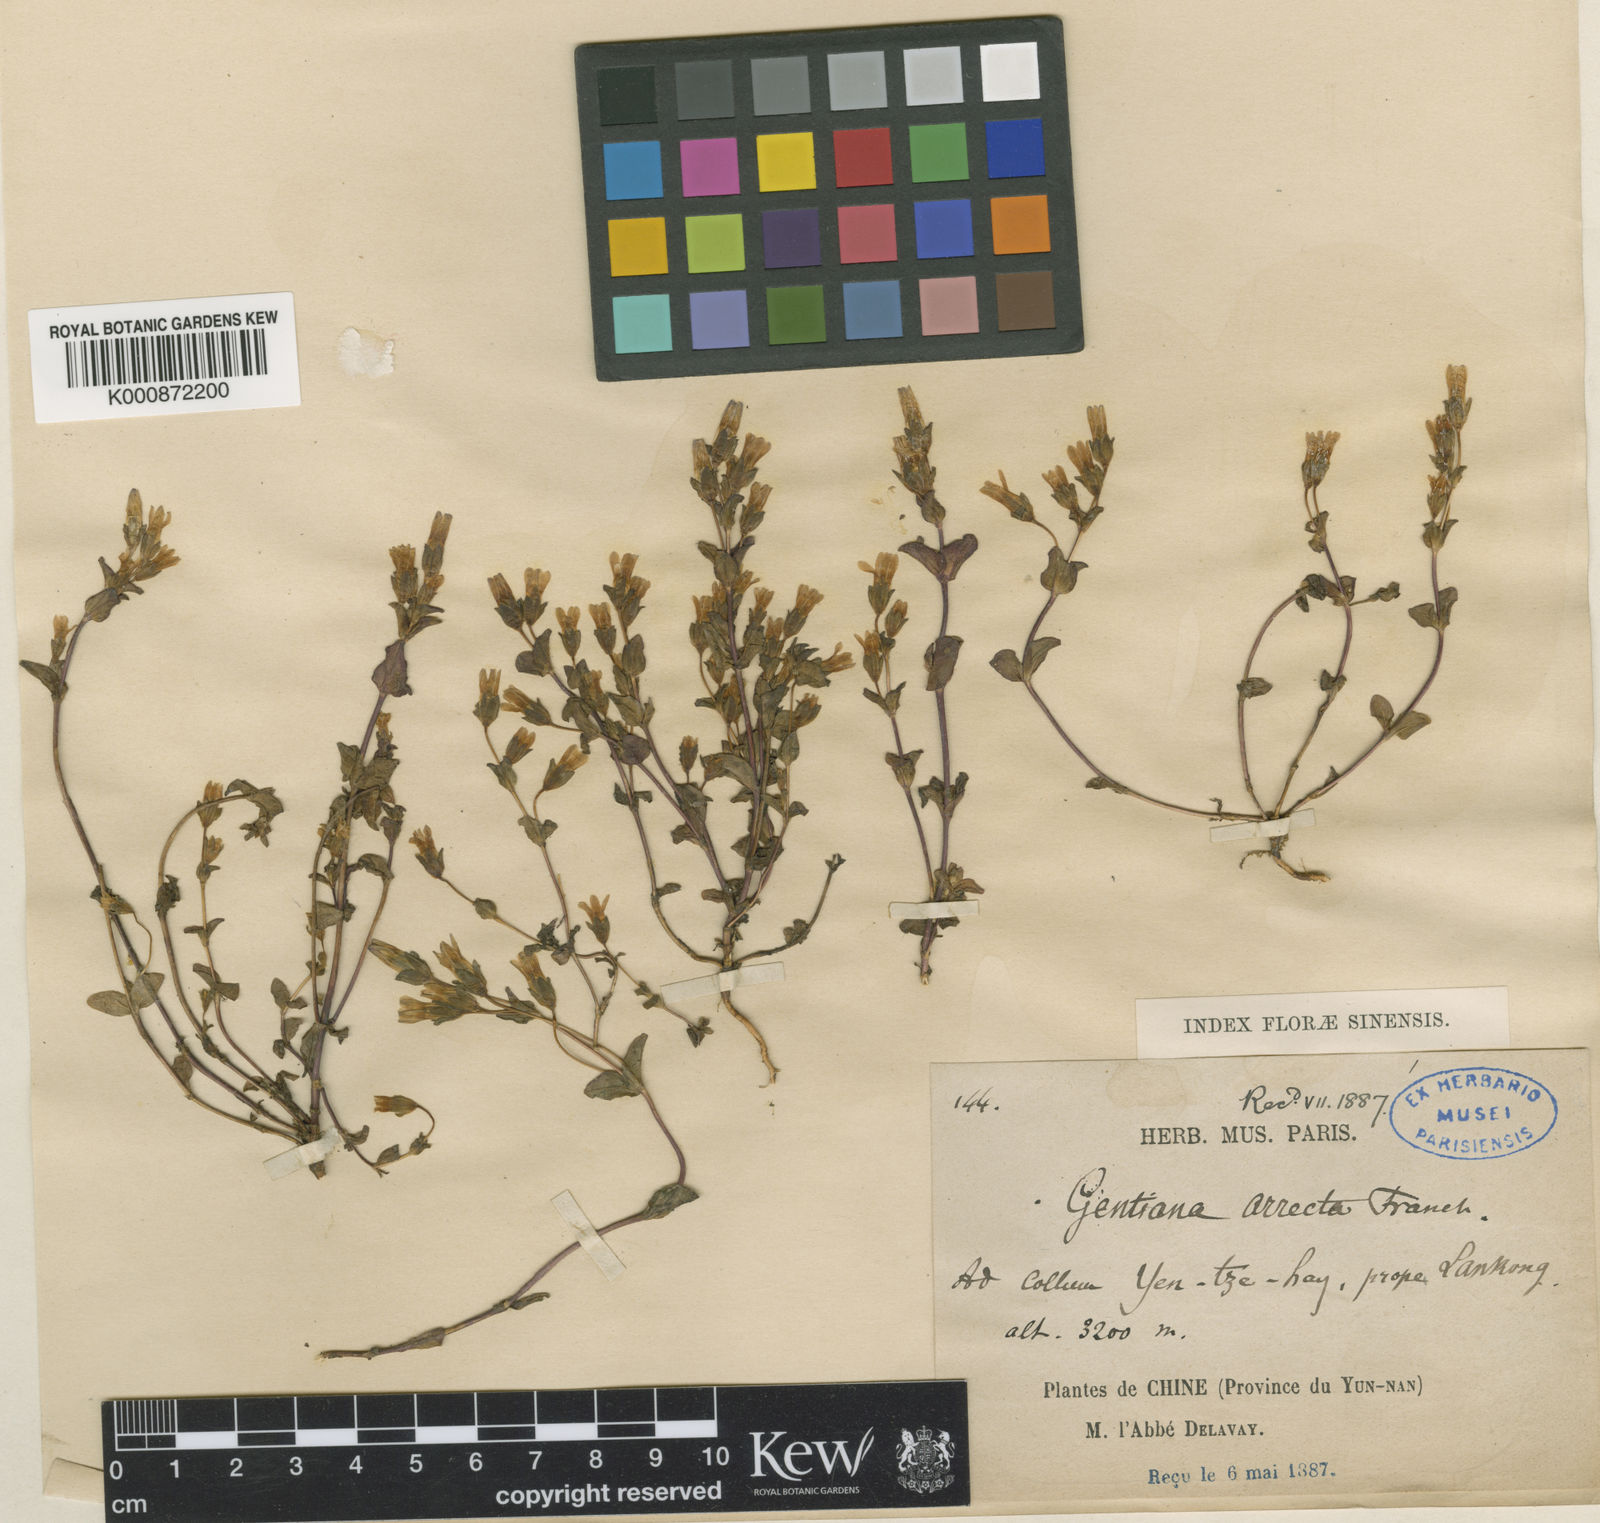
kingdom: Plantae
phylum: Tracheophyta
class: Magnoliopsida
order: Gentianales
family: Gentianaceae
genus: Gentianella
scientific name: Gentianella
